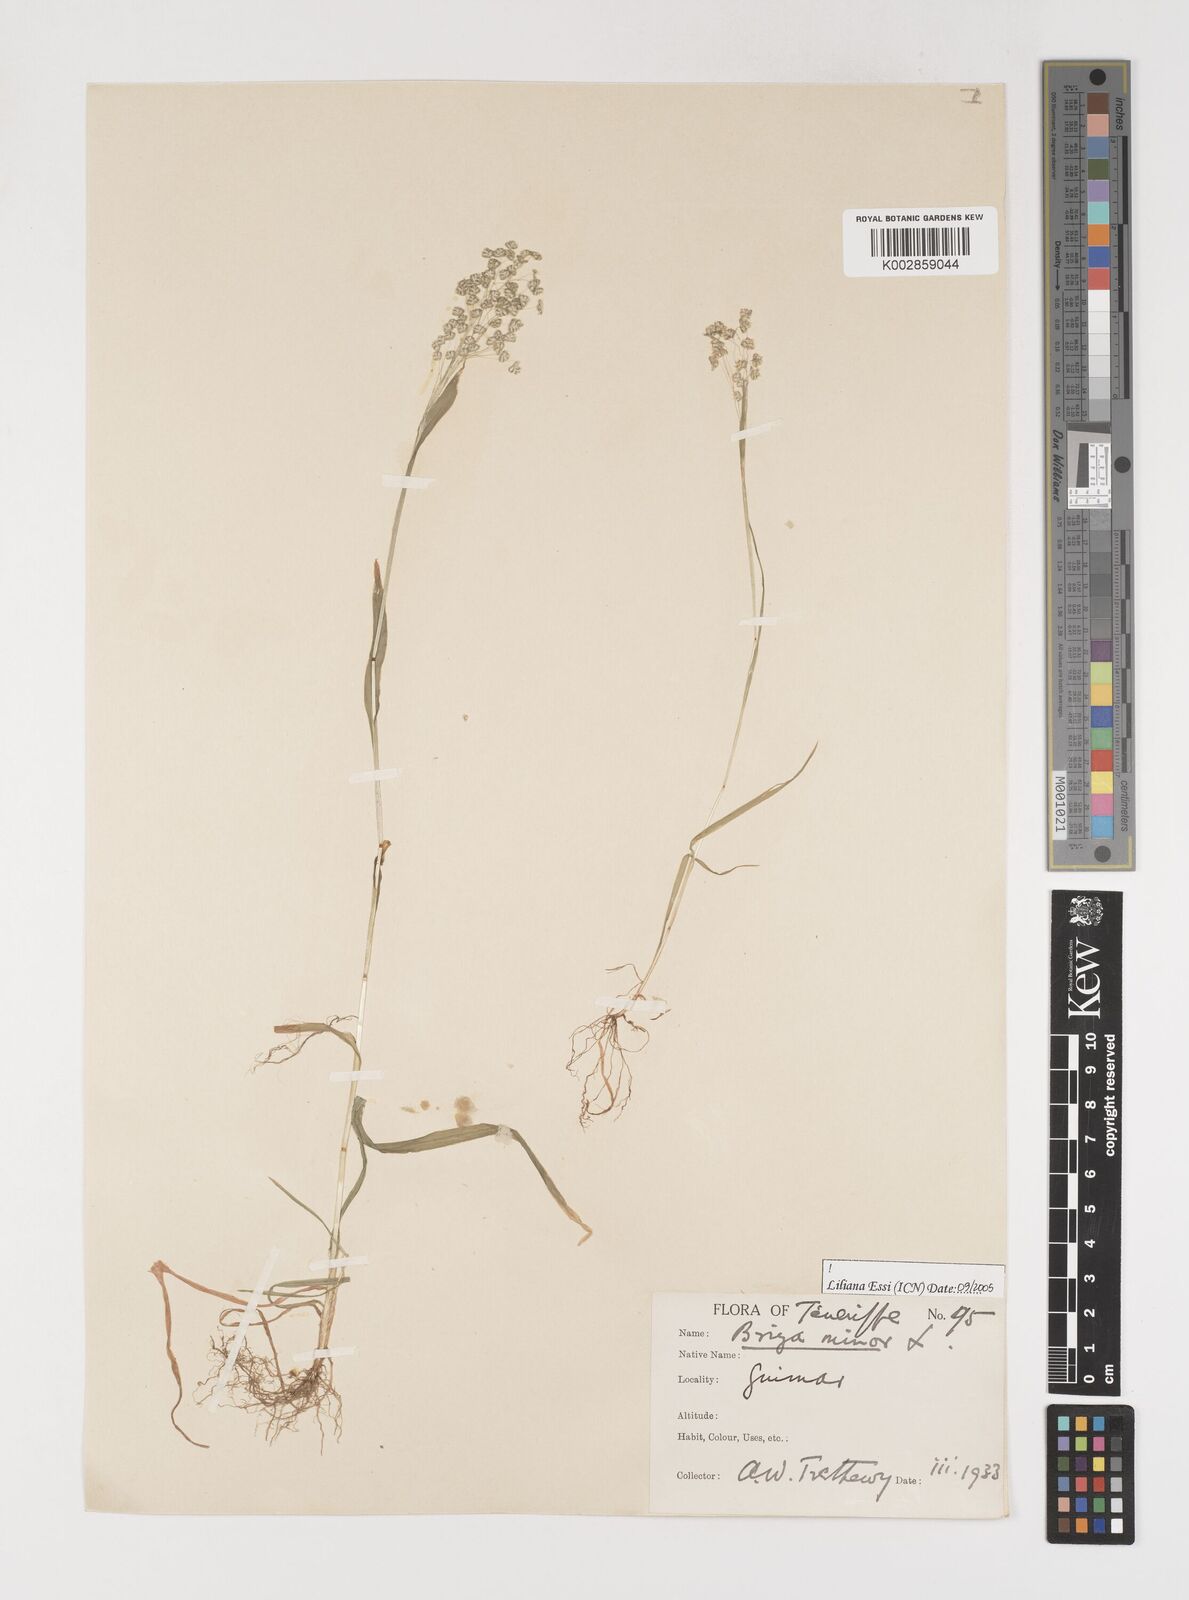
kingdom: Plantae
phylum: Tracheophyta
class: Liliopsida
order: Poales
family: Poaceae
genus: Briza
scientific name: Briza minor
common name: Lesser quaking-grass
